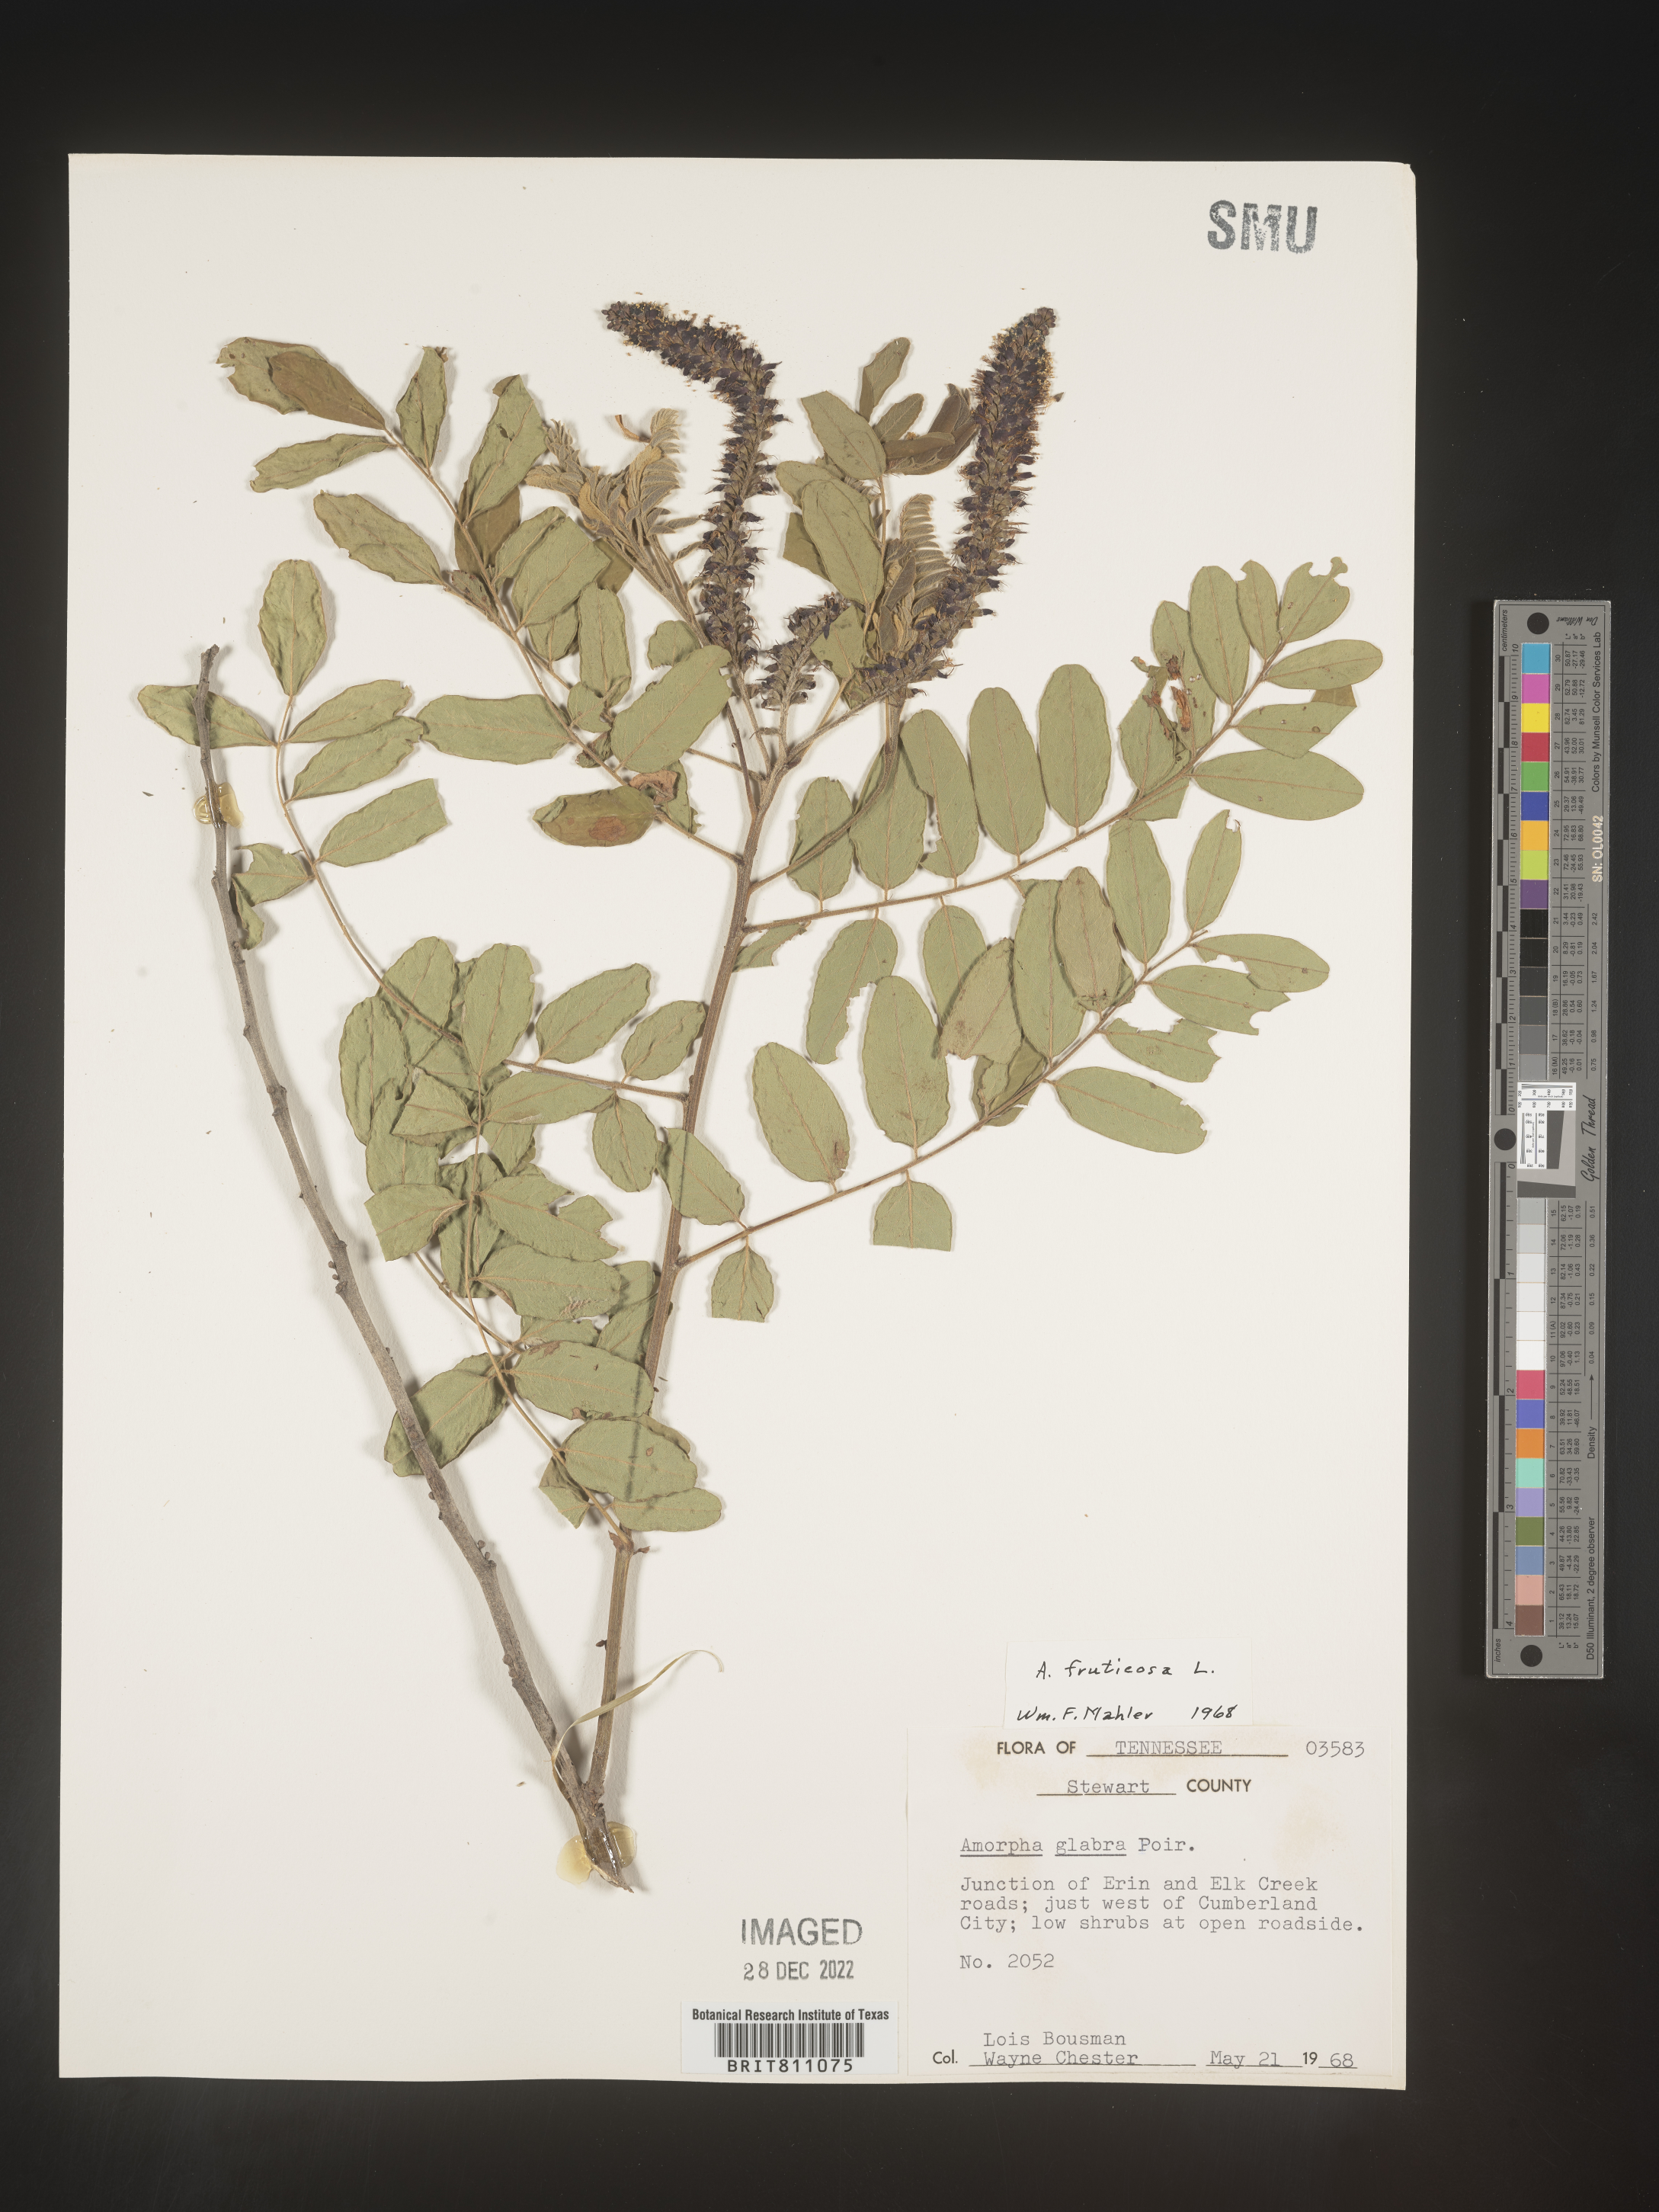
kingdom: Plantae
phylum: Tracheophyta
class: Magnoliopsida
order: Fabales
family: Fabaceae
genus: Amorpha
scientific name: Amorpha fruticosa
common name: False indigo
